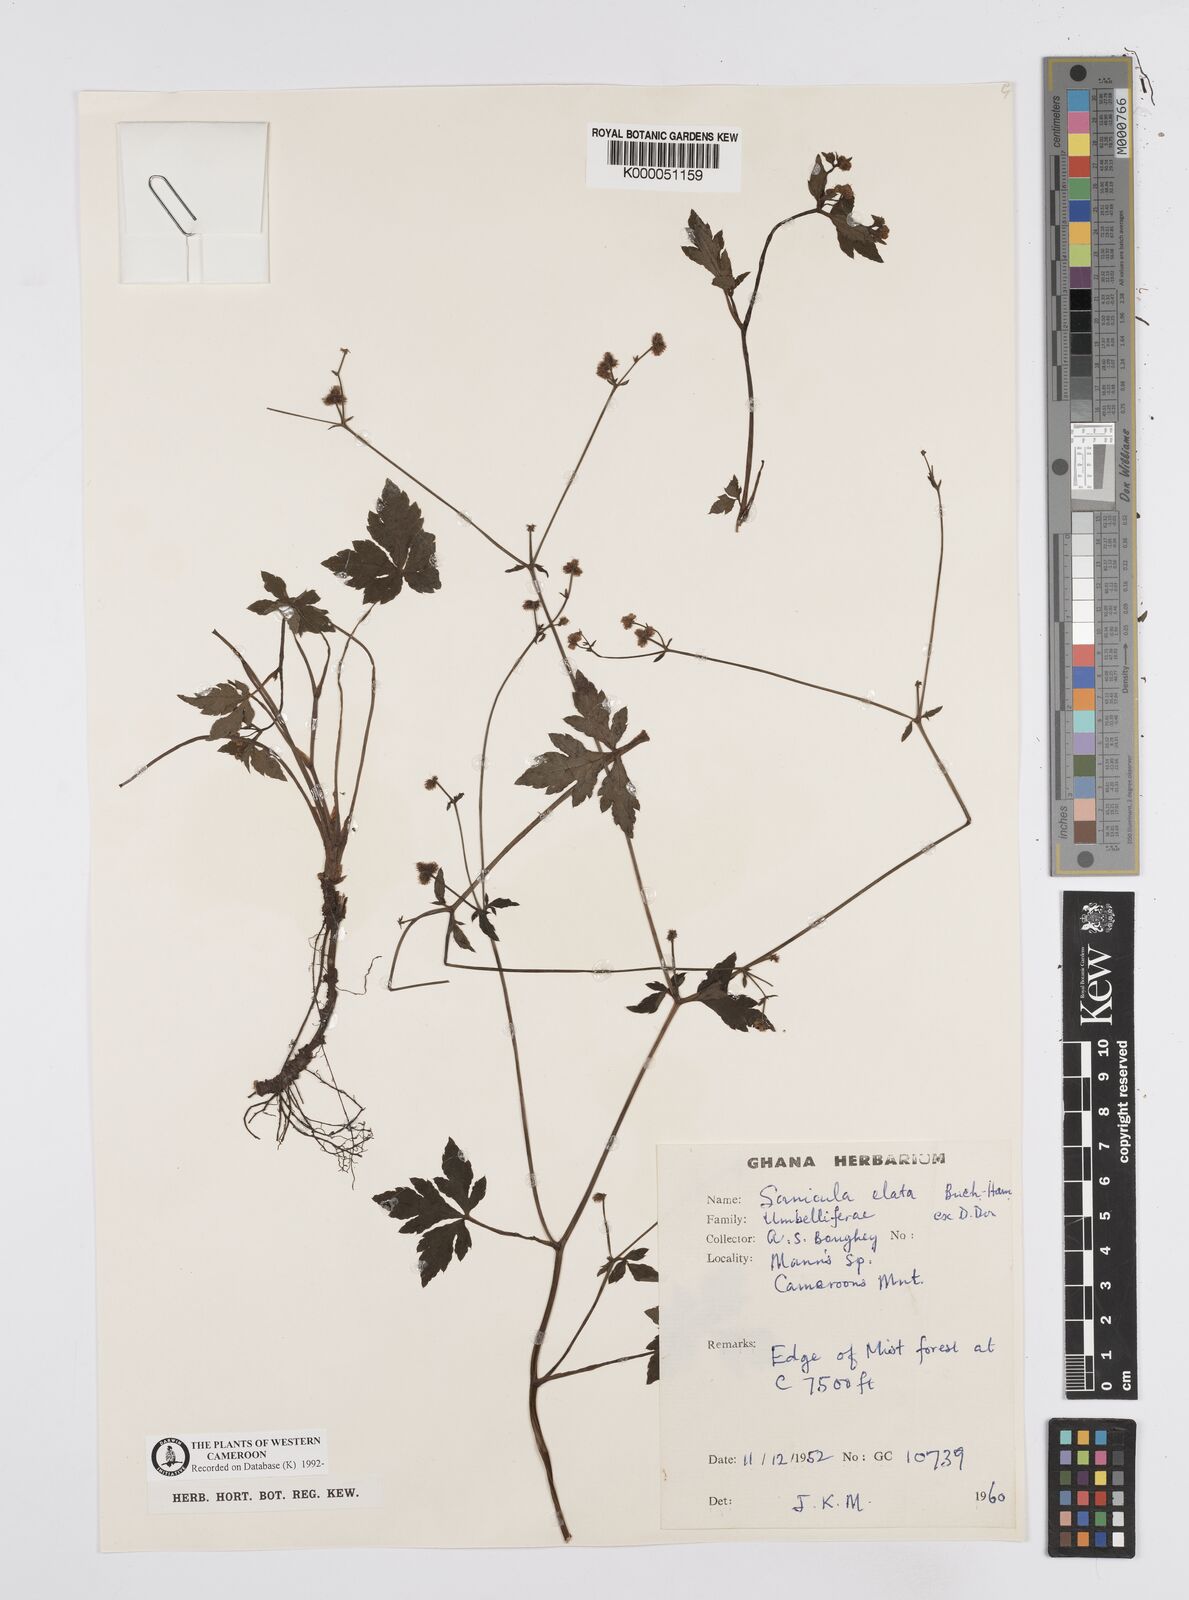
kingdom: Plantae
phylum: Tracheophyta
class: Magnoliopsida
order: Apiales
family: Apiaceae
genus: Sanicula
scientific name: Sanicula
